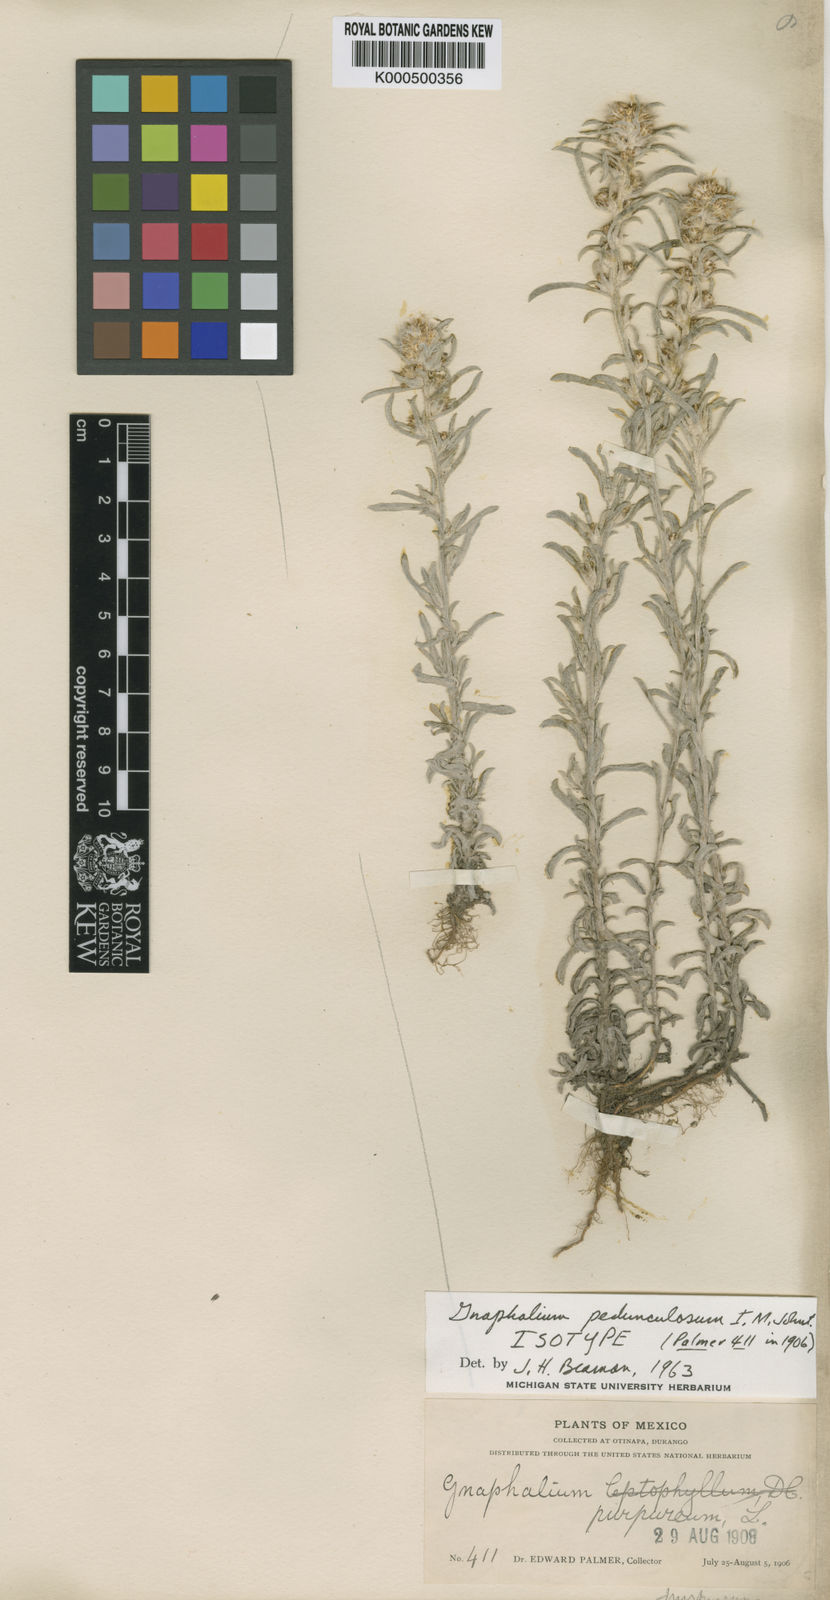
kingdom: Plantae
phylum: Tracheophyta
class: Magnoliopsida
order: Asterales
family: Asteraceae
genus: Gamochaeta
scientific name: Gamochaeta sphacelata
